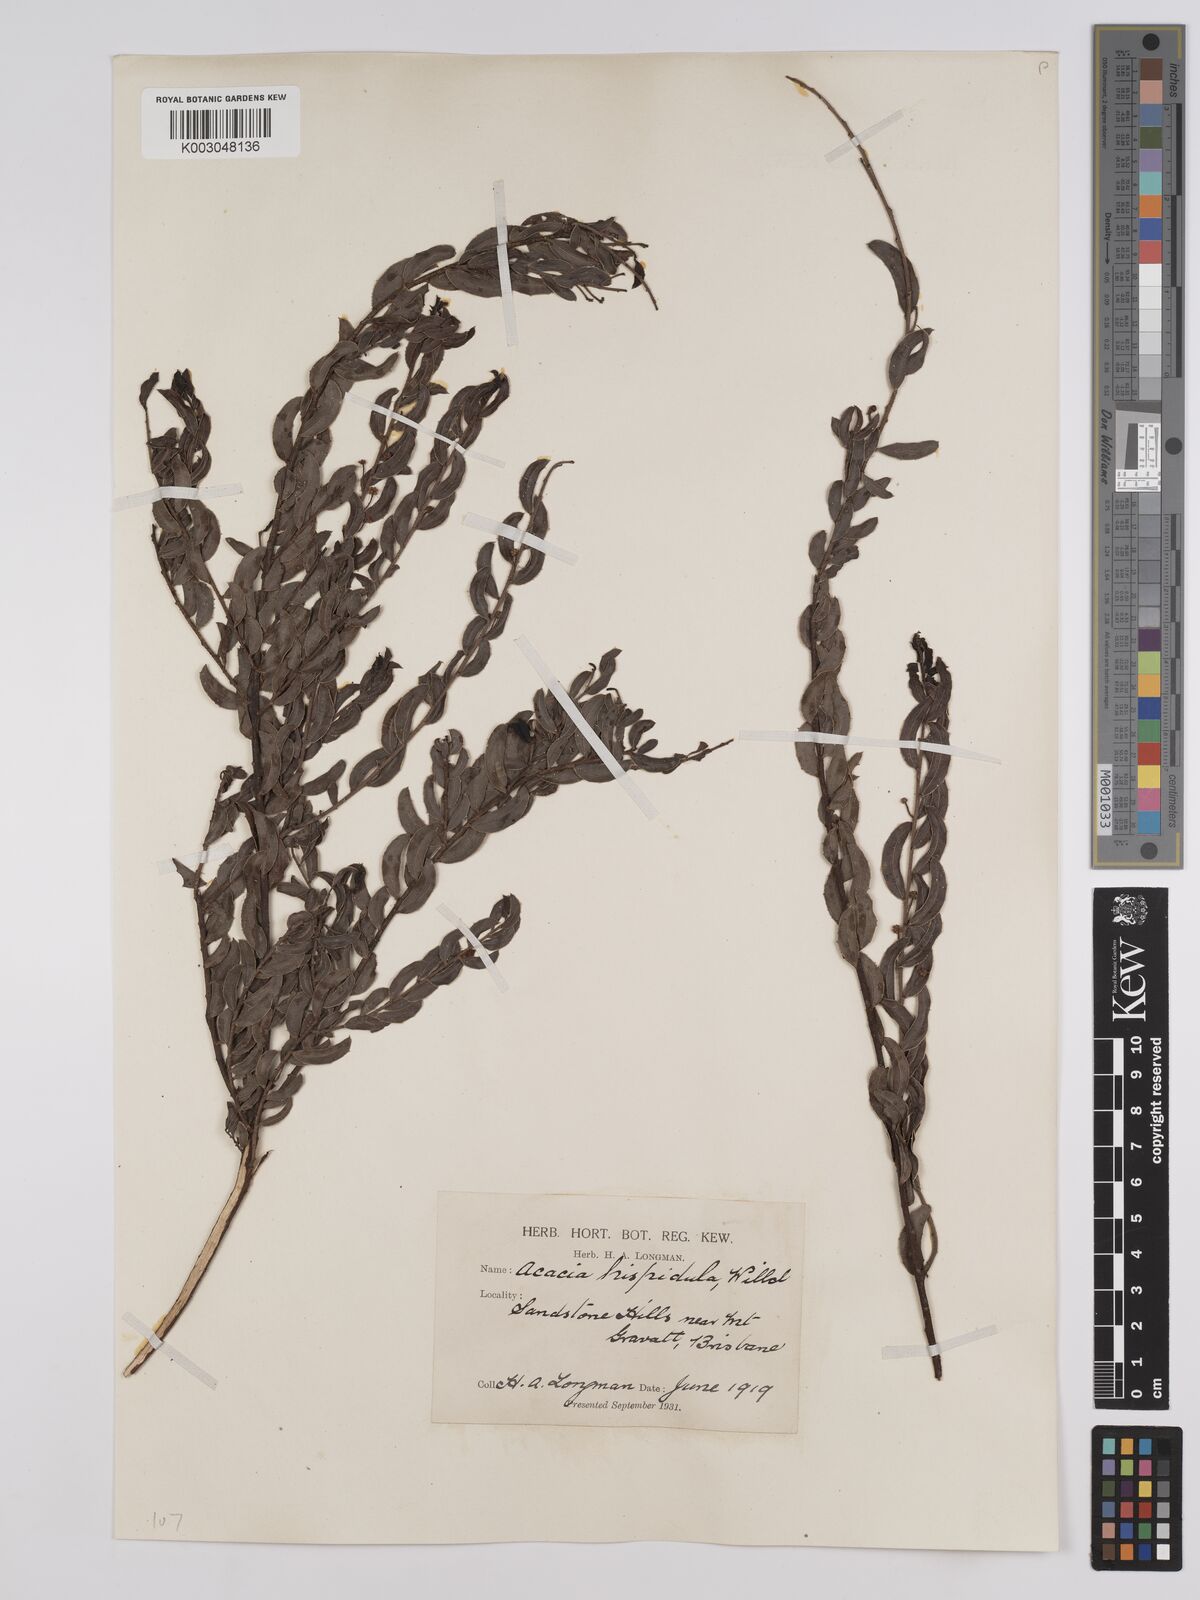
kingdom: Plantae
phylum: Tracheophyta
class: Magnoliopsida
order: Fabales
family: Fabaceae
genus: Acacia
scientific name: Acacia hispidula
